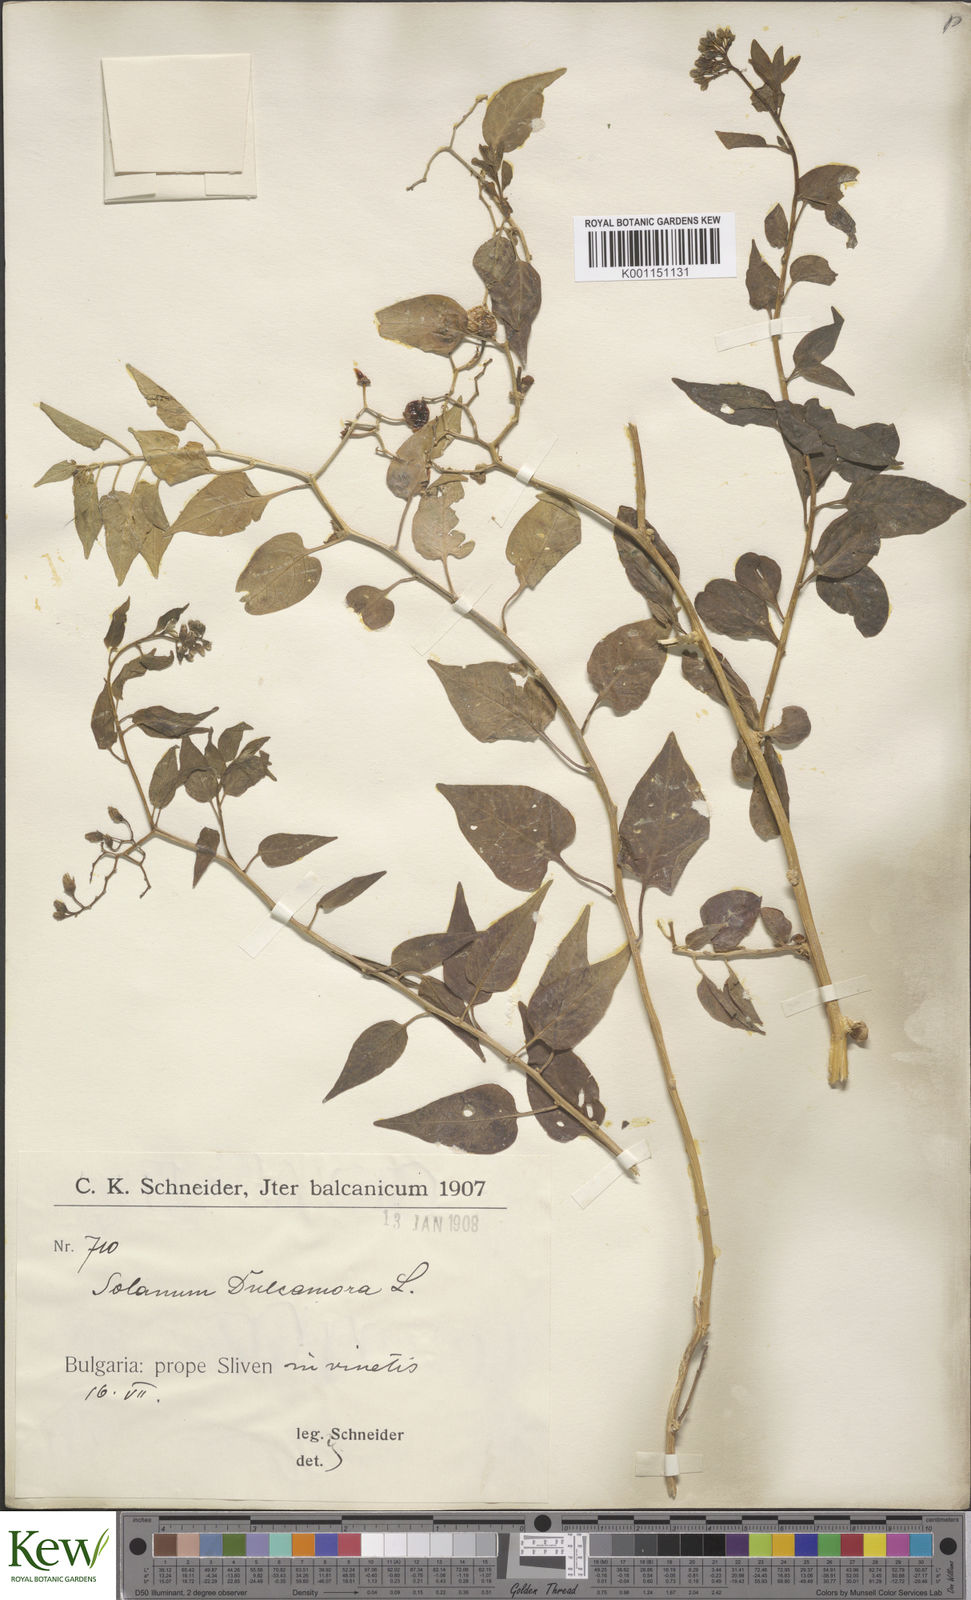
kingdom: Plantae
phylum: Tracheophyta
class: Magnoliopsida
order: Solanales
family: Solanaceae
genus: Solanum
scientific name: Solanum dulcamara
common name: Climbing nightshade
